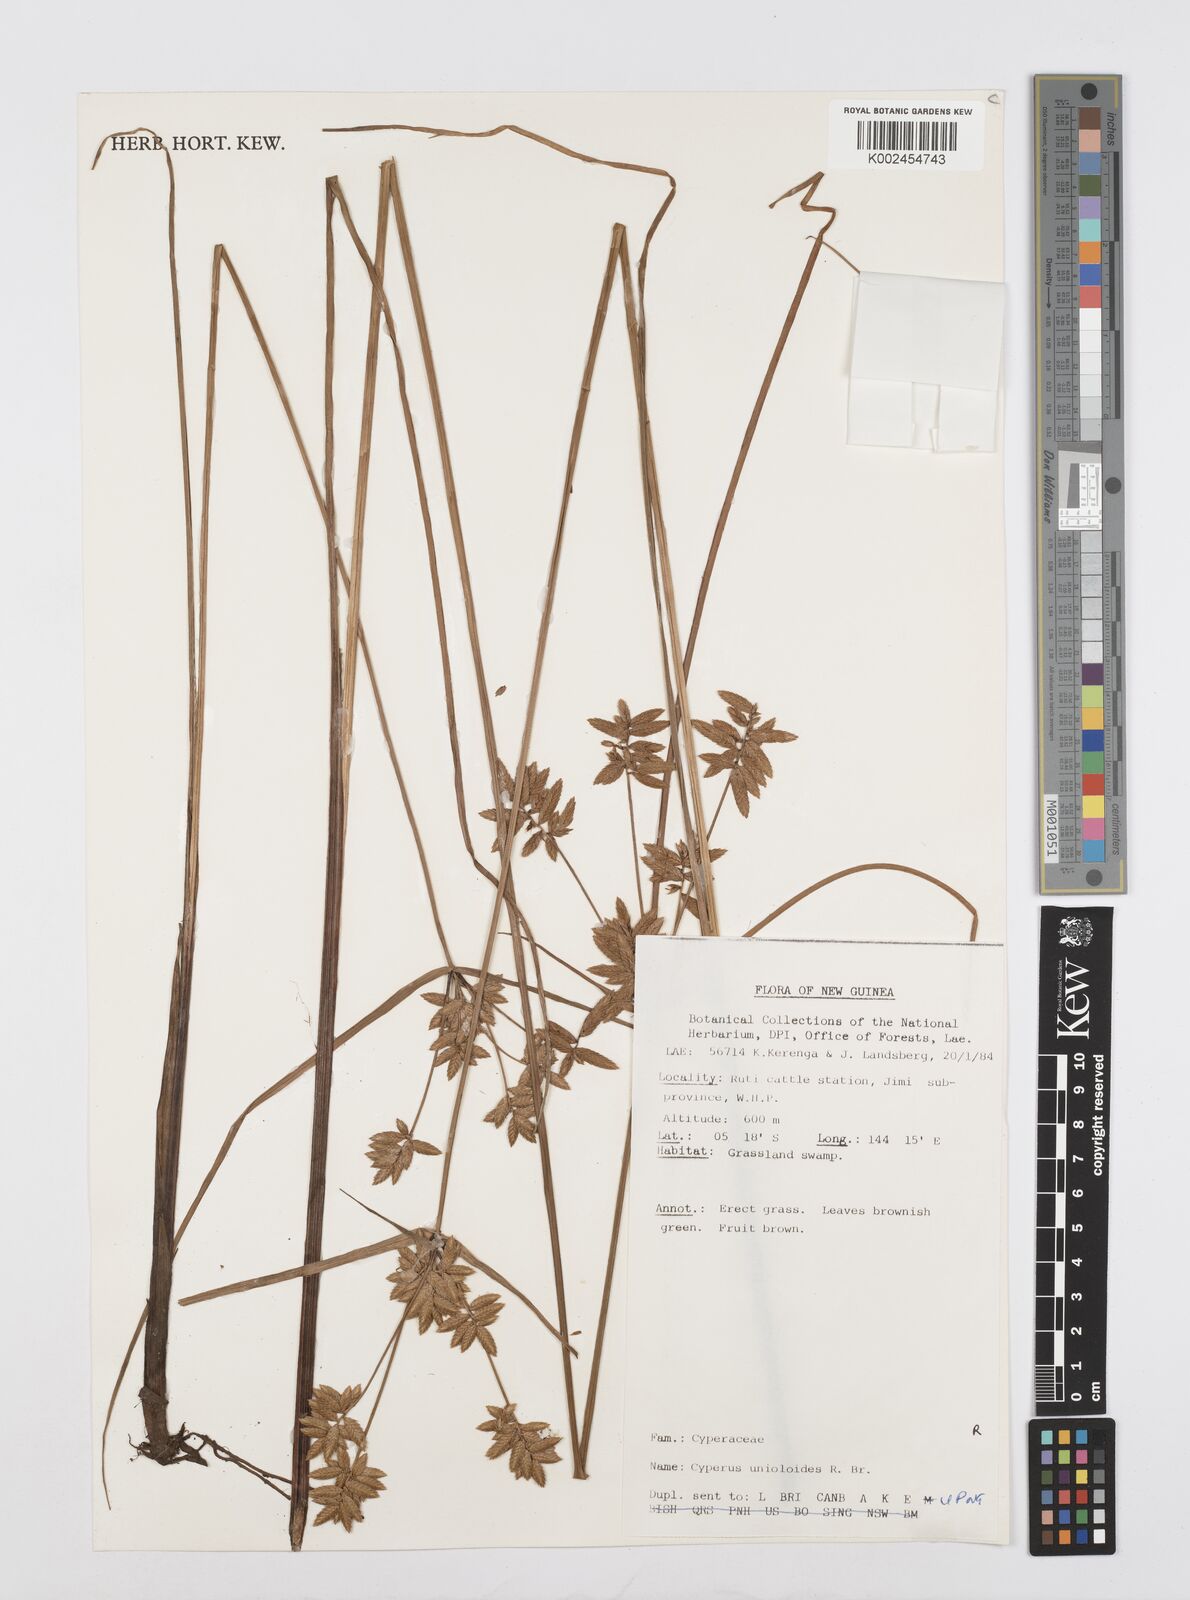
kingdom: Plantae
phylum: Tracheophyta
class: Liliopsida
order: Poales
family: Cyperaceae
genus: Cyperus
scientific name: Cyperus unioloides
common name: Uniola flatsedge
